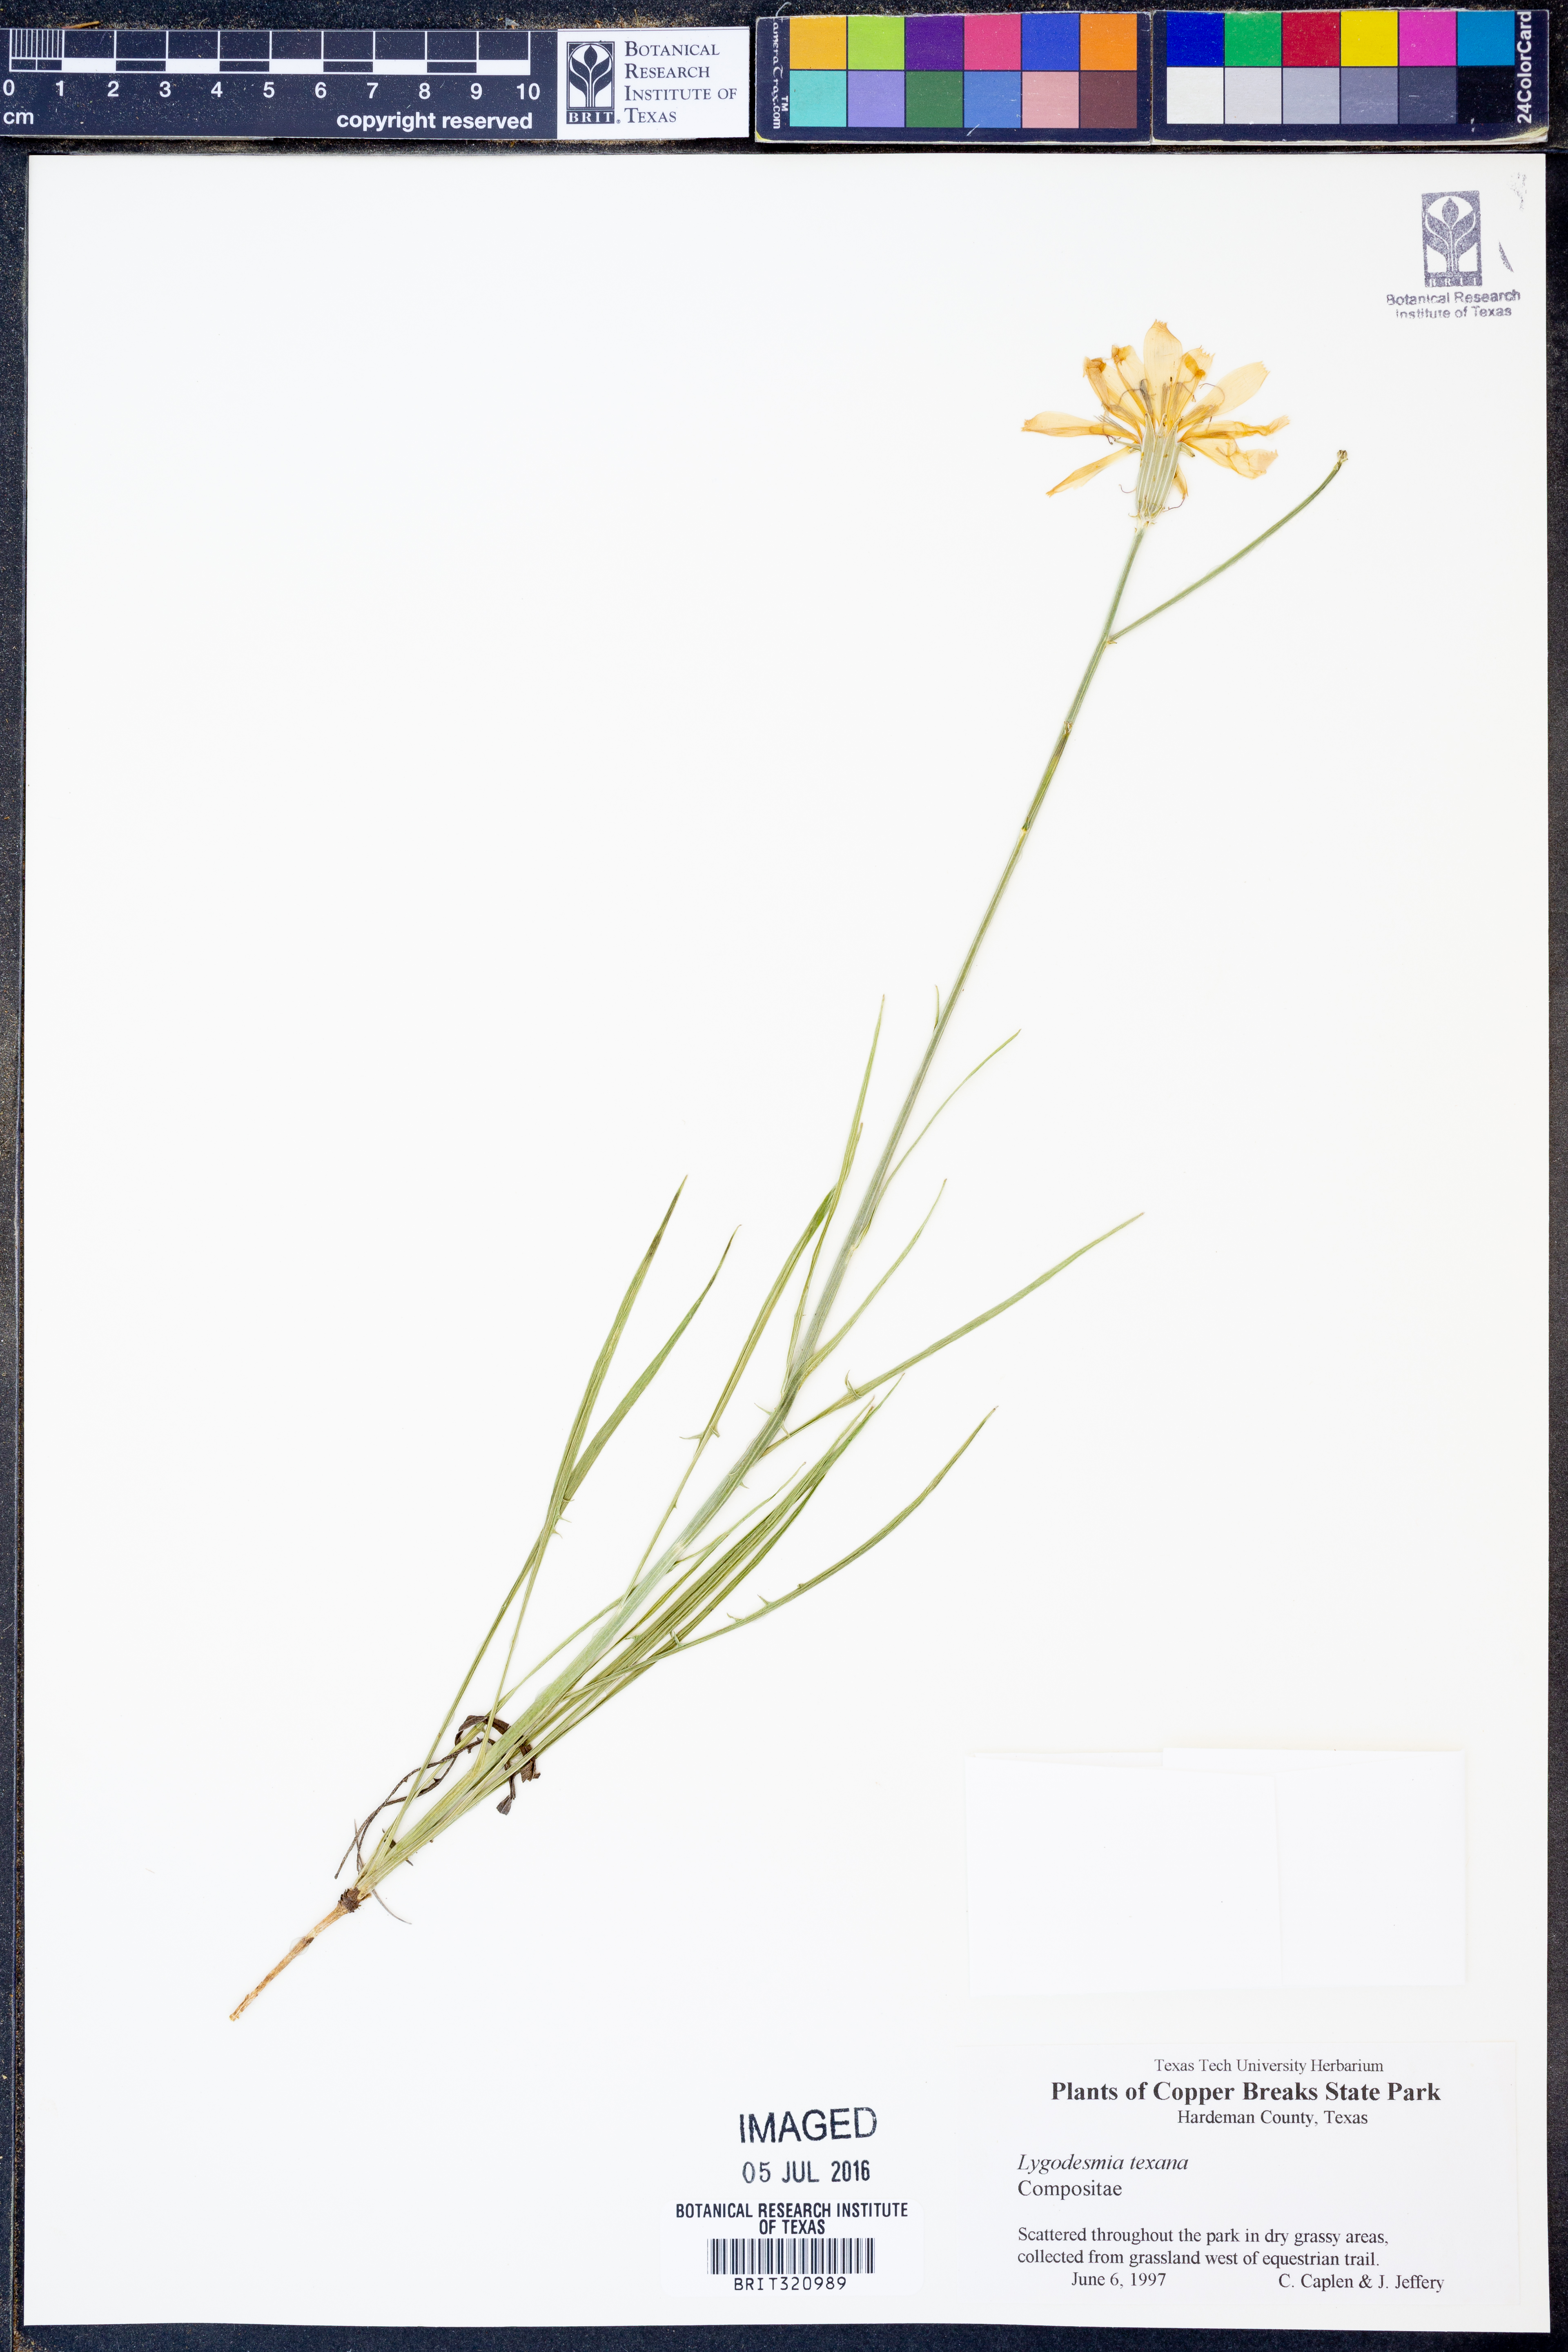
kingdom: Plantae
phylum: Tracheophyta
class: Magnoliopsida
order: Asterales
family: Asteraceae
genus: Lygodesmia
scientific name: Lygodesmia texana
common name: Texas skeleton-plant
